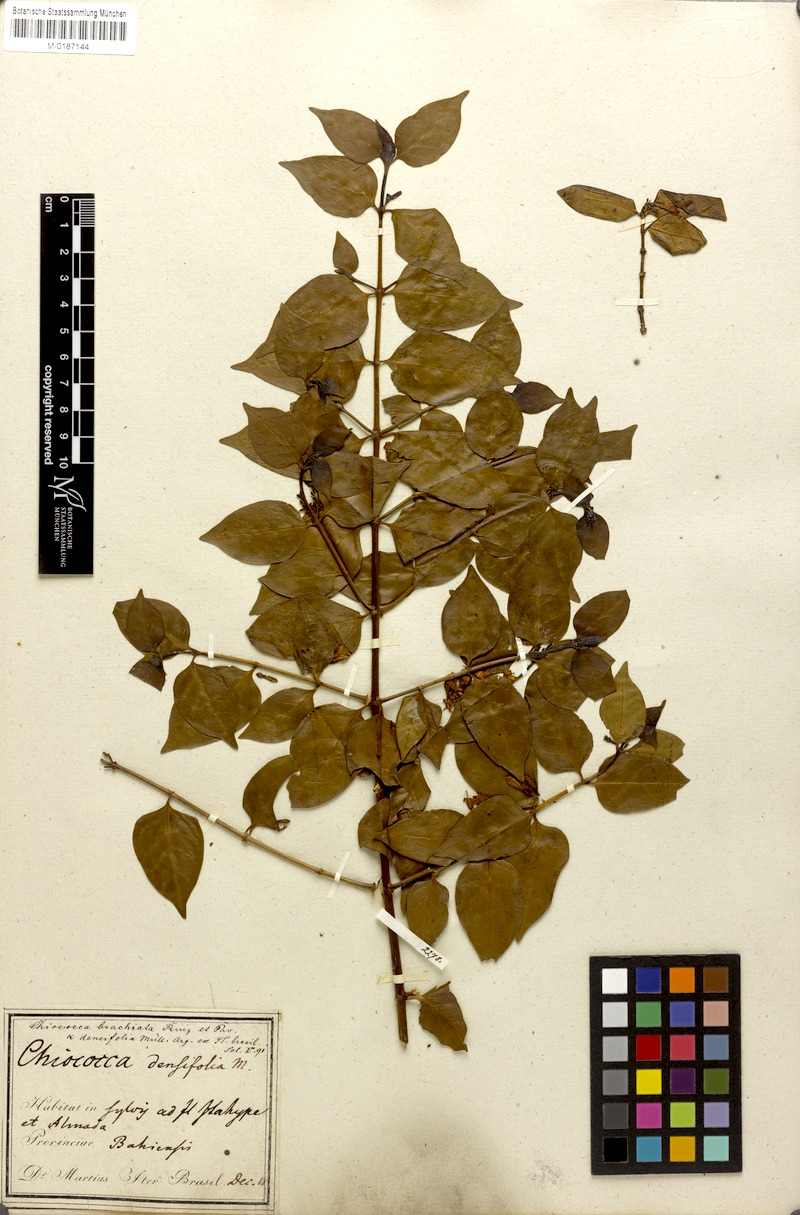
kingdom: Plantae
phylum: Tracheophyta
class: Magnoliopsida
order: Gentianales
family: Rubiaceae
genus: Chiococca
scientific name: Chiococca alba
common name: Snowberry
